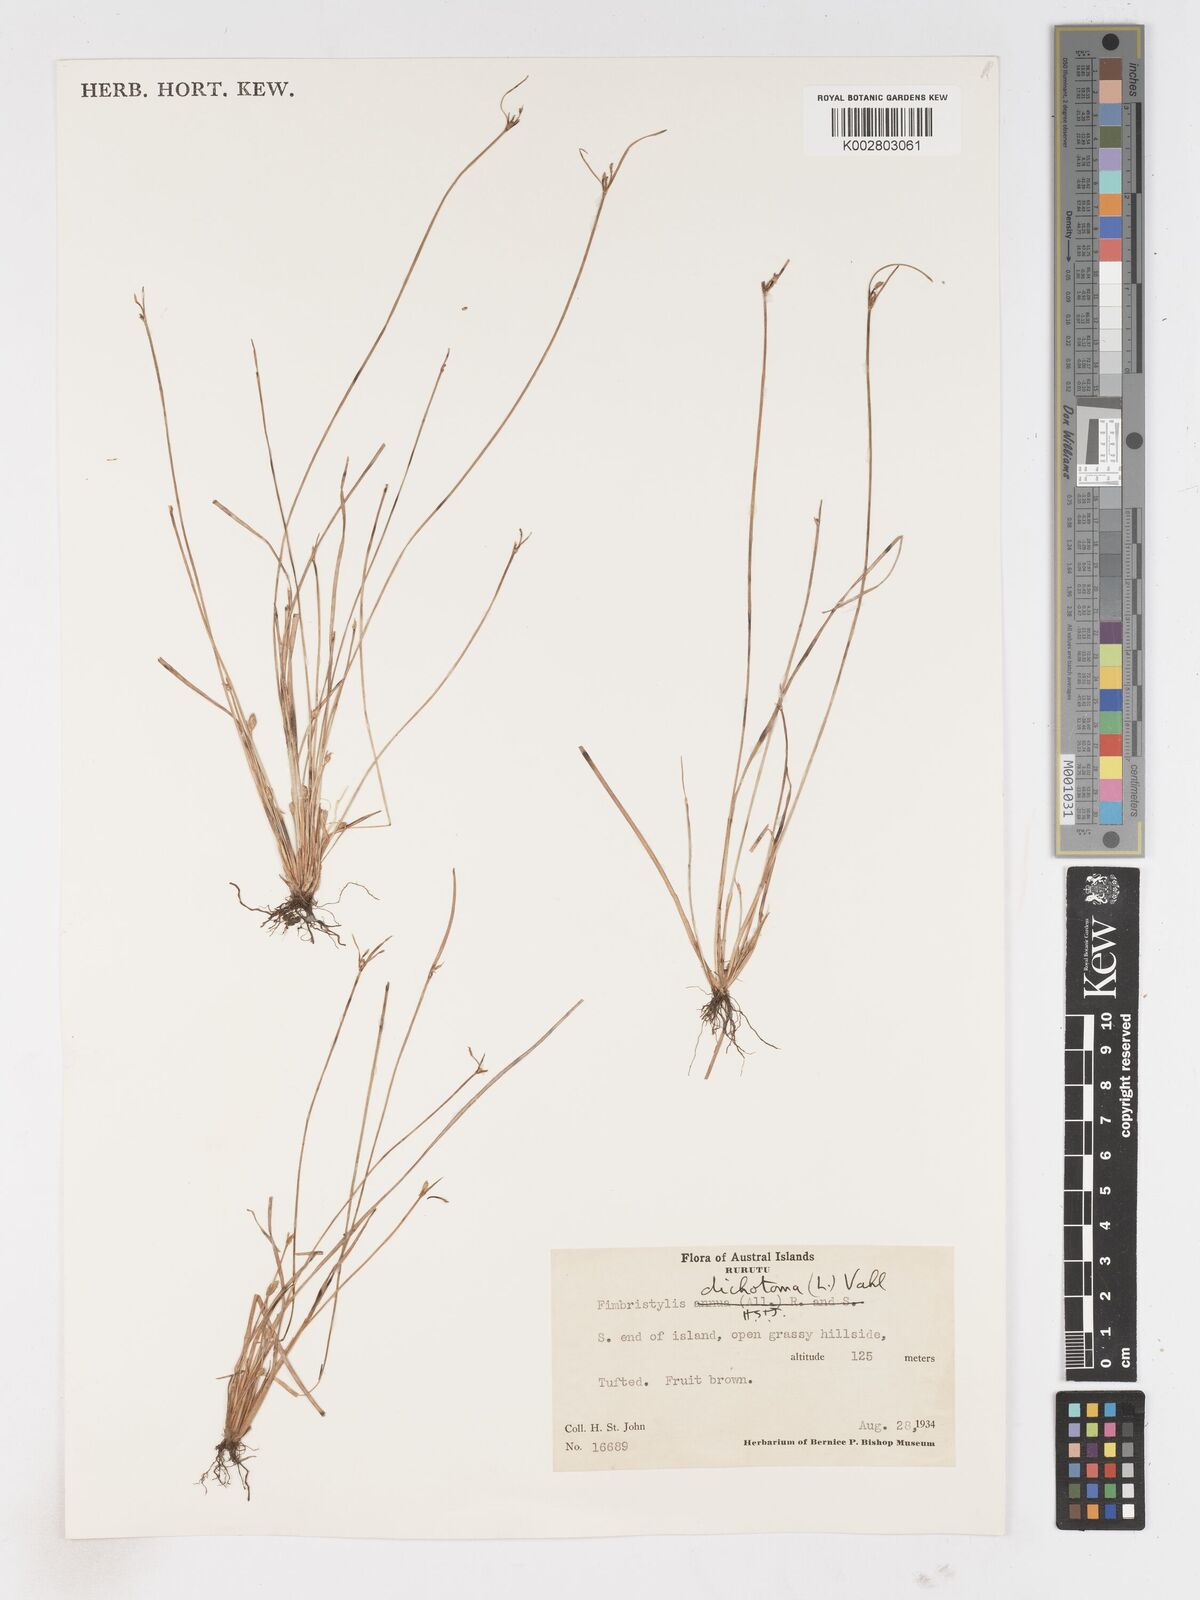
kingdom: Plantae
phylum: Tracheophyta
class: Liliopsida
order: Poales
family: Cyperaceae
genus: Fimbristylis
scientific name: Fimbristylis dichotoma
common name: Forked fimbry
